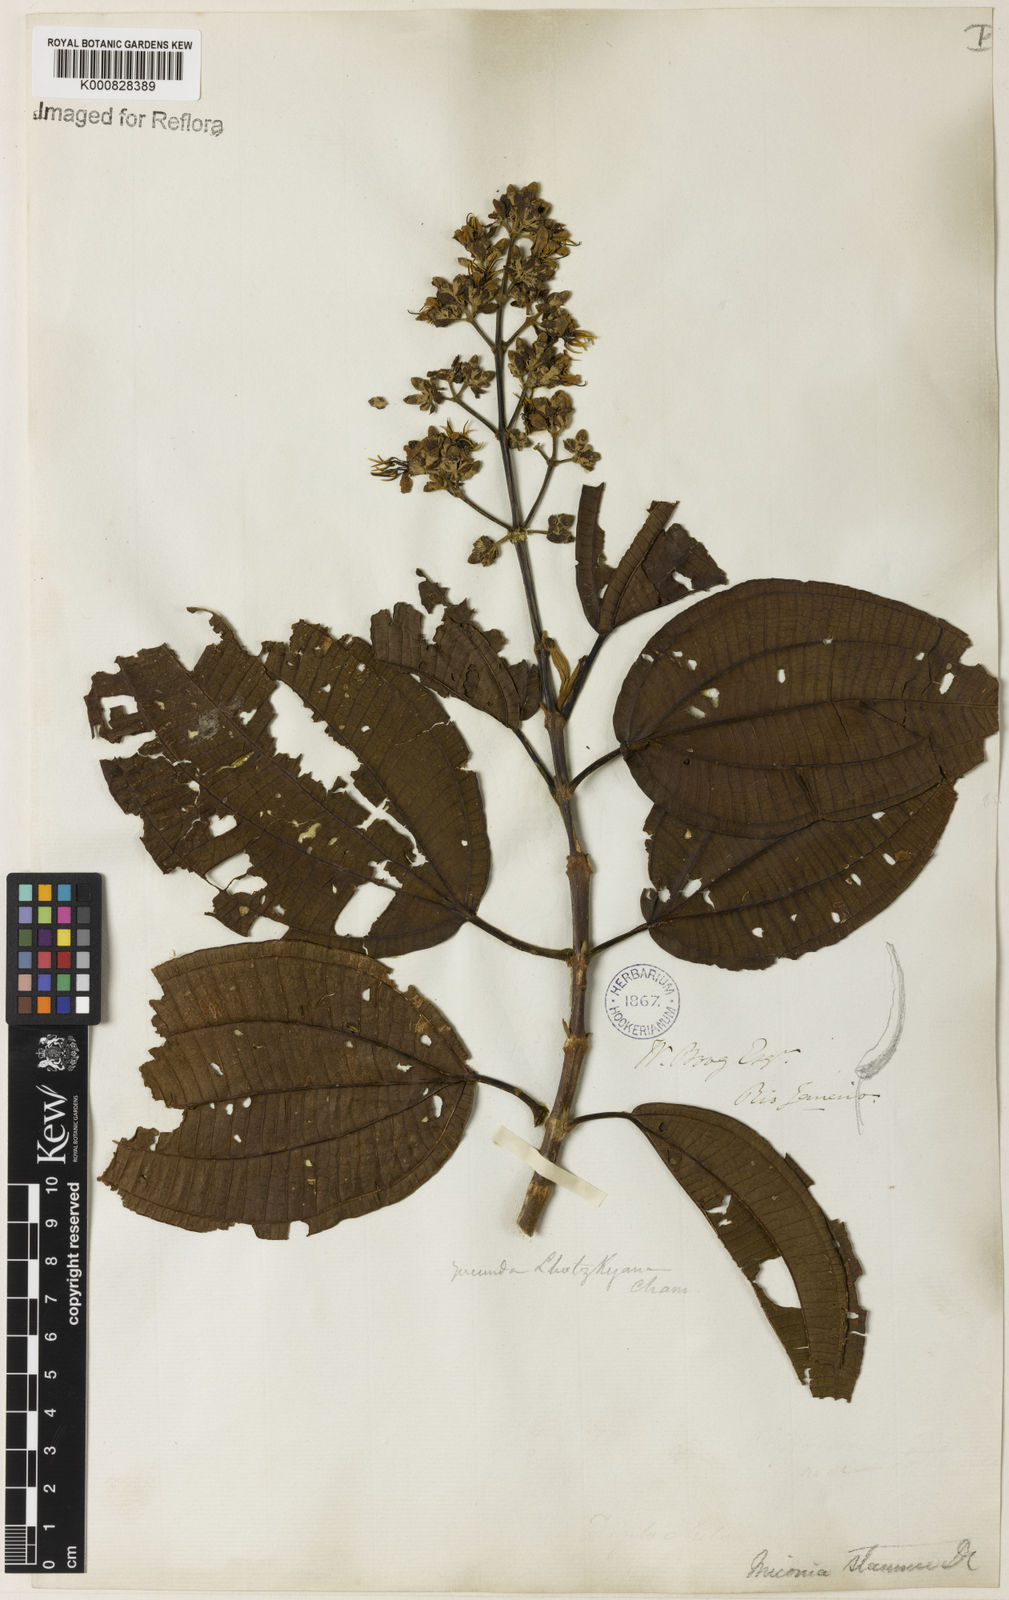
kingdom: Plantae
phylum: Tracheophyta
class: Magnoliopsida
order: Myrtales
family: Melastomataceae
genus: Miconia
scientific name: Miconia staminea
